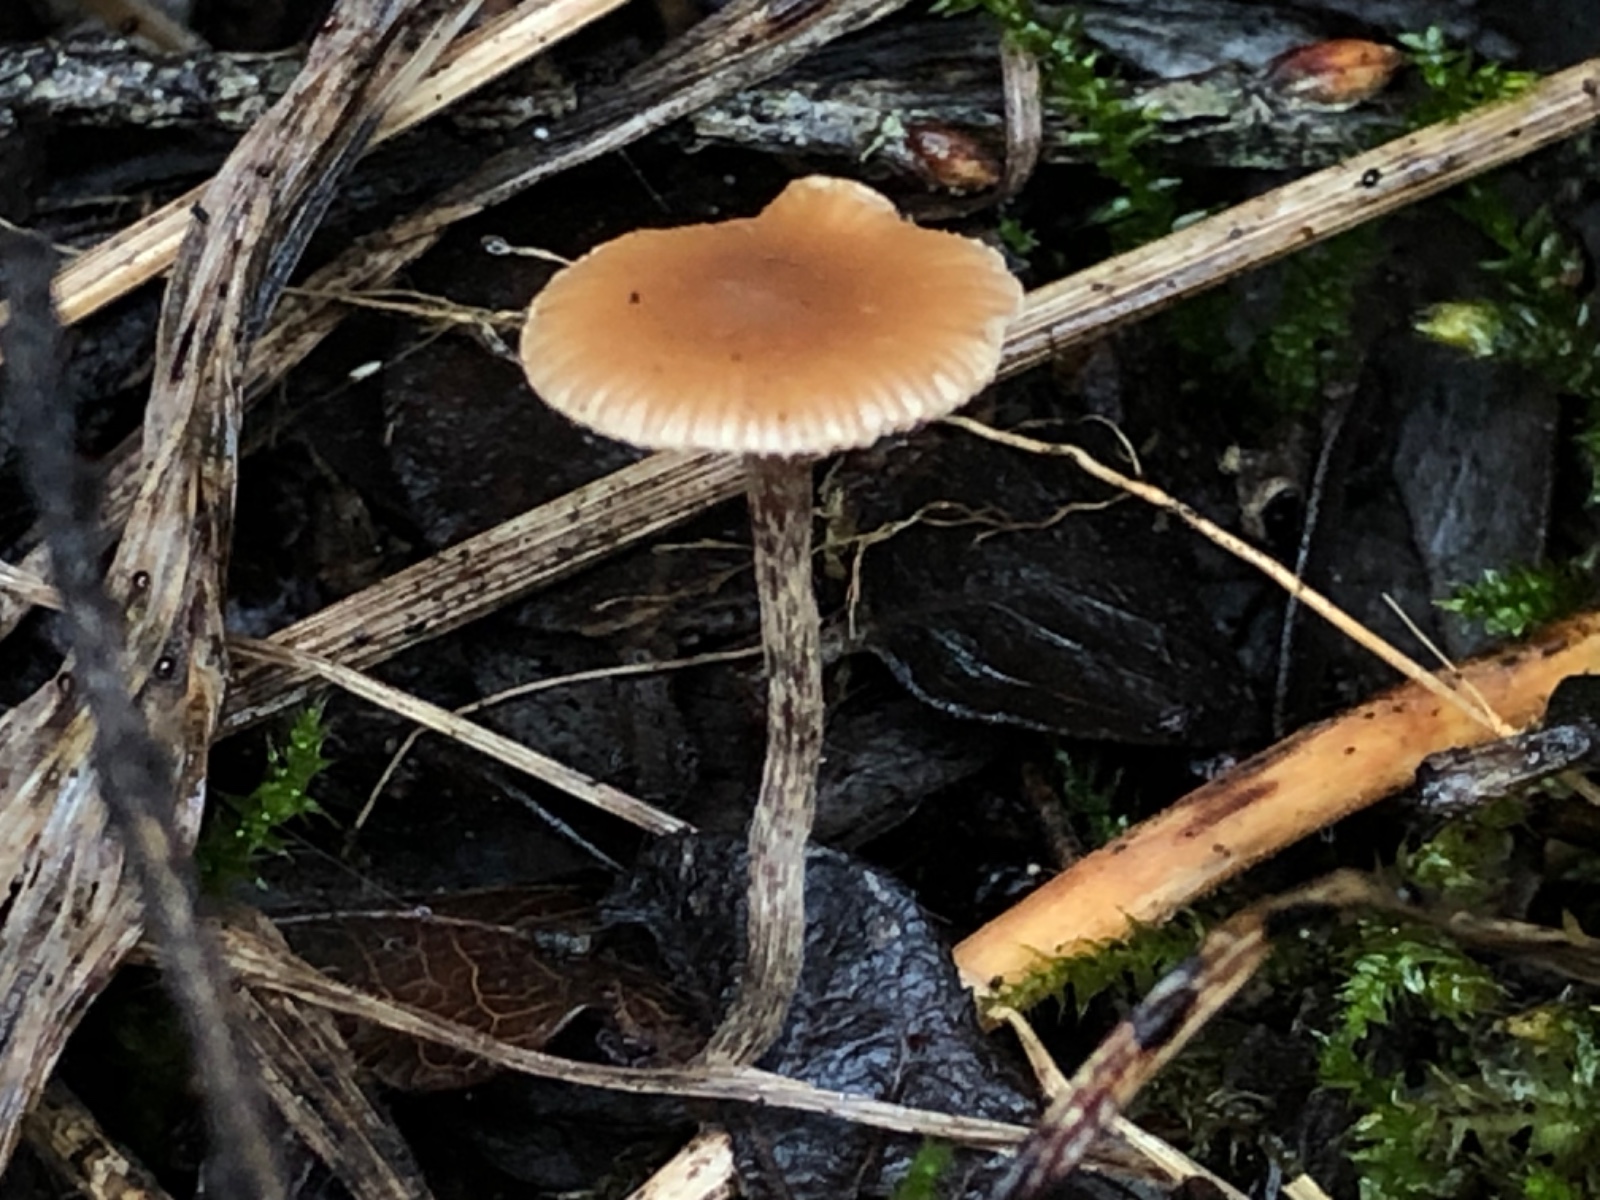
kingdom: Fungi
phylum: Basidiomycota
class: Agaricomycetes
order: Agaricales
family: Strophariaceae
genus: Deconica
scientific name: Deconica
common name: stråhat
